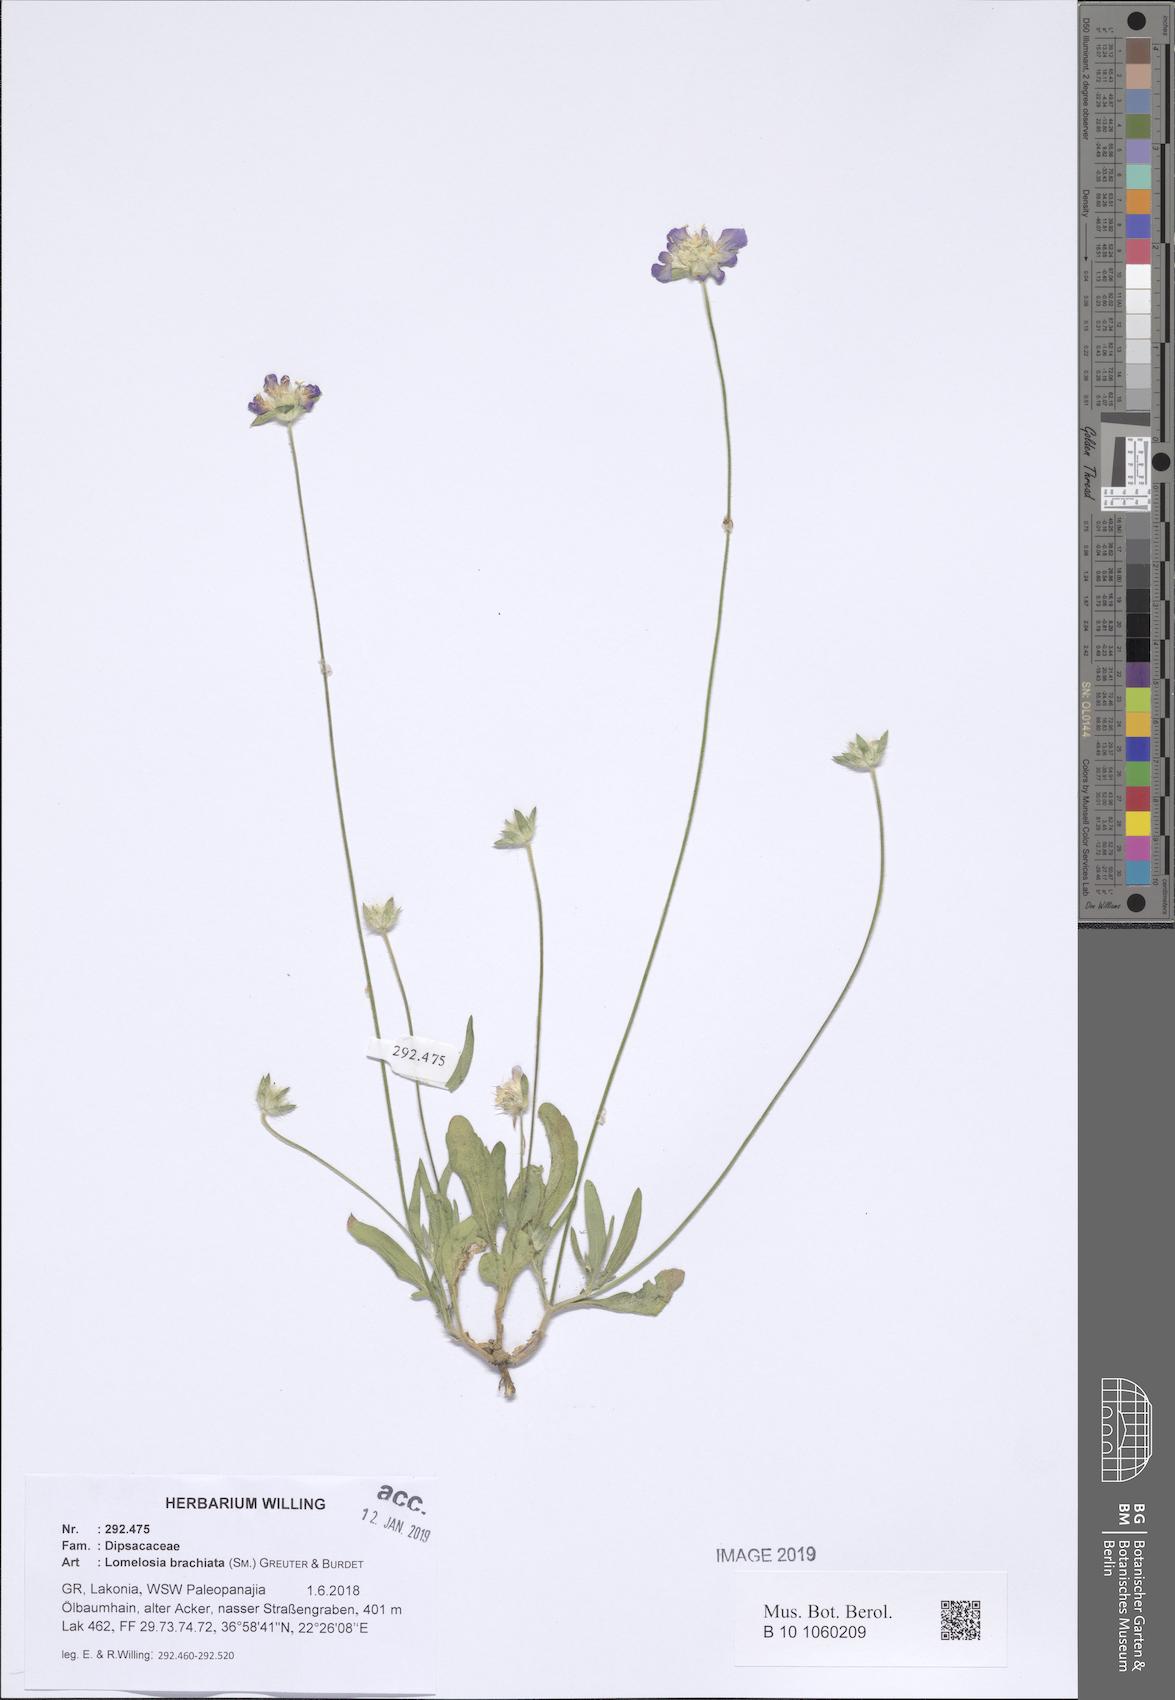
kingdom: Plantae
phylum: Tracheophyta
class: Magnoliopsida
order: Dipsacales
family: Caprifoliaceae
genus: Lomelosia
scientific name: Lomelosia brachiata
